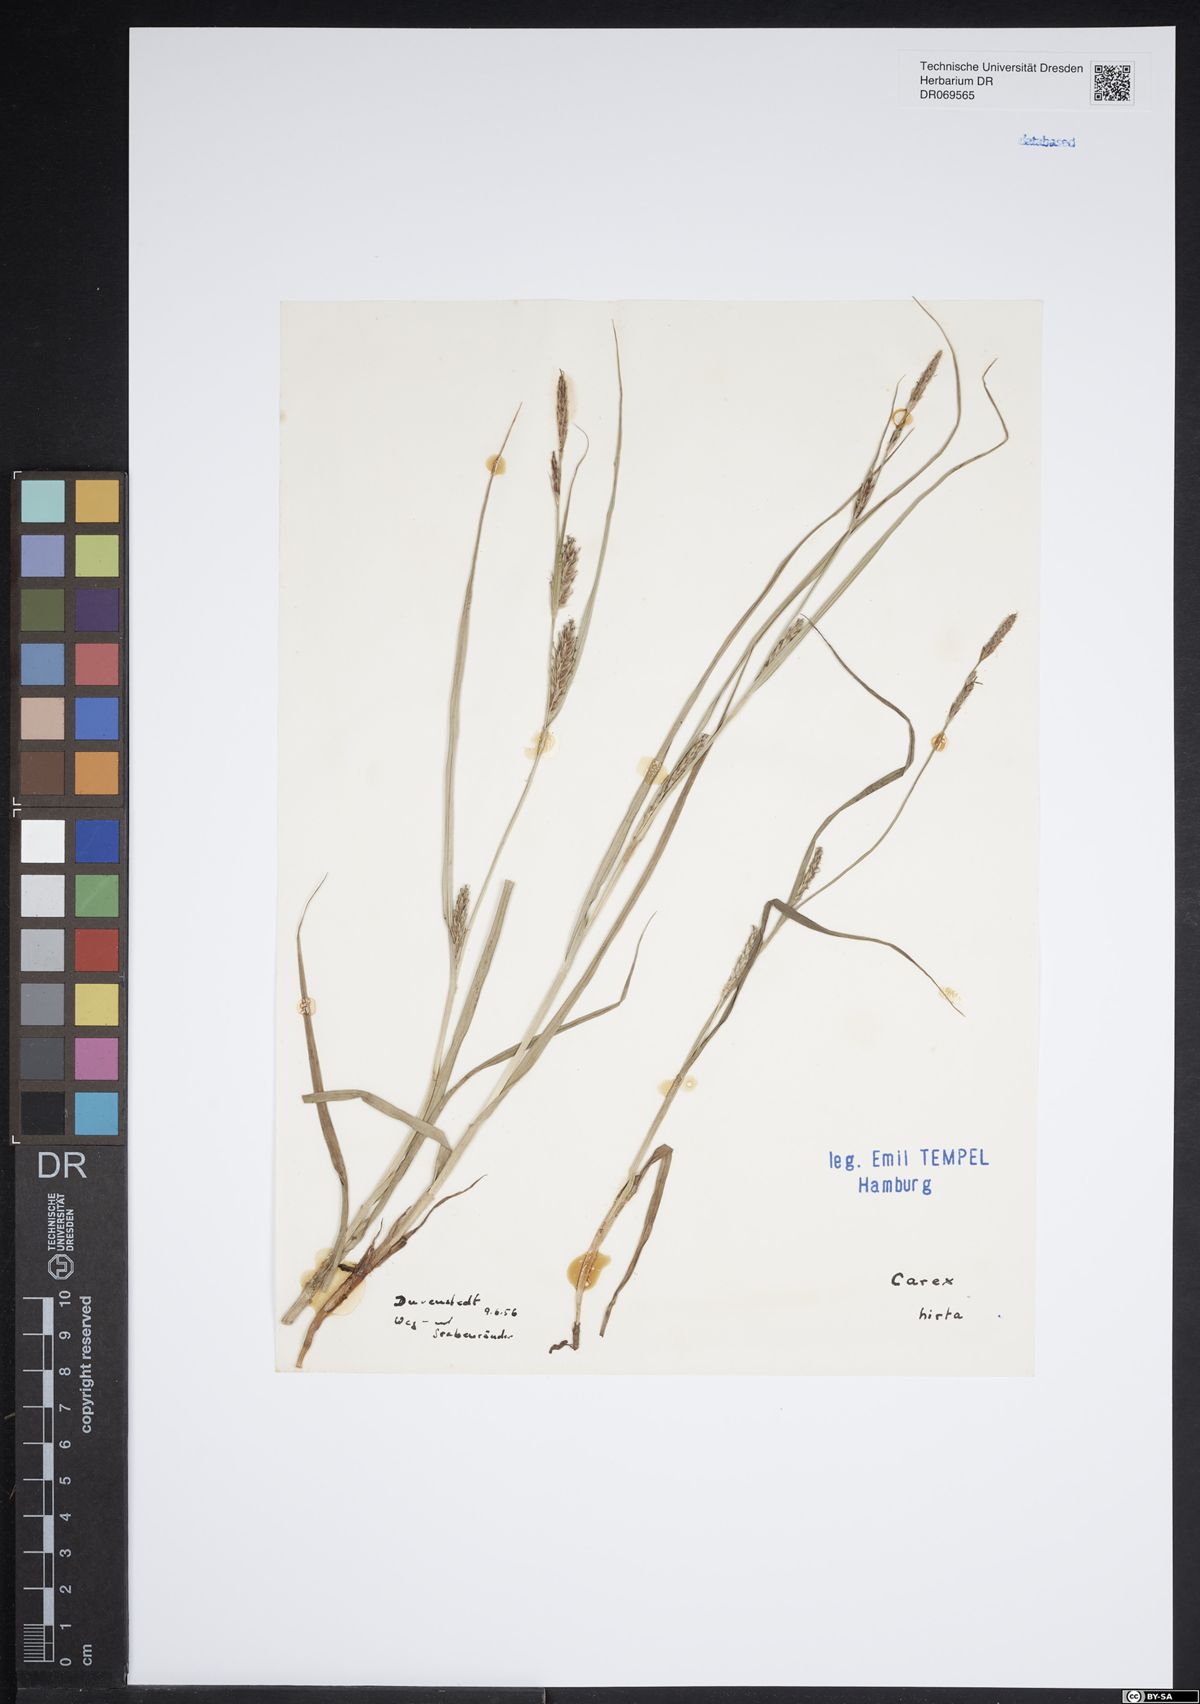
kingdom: Plantae
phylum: Tracheophyta
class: Liliopsida
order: Poales
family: Cyperaceae
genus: Carex
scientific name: Carex hirta
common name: Hairy sedge
